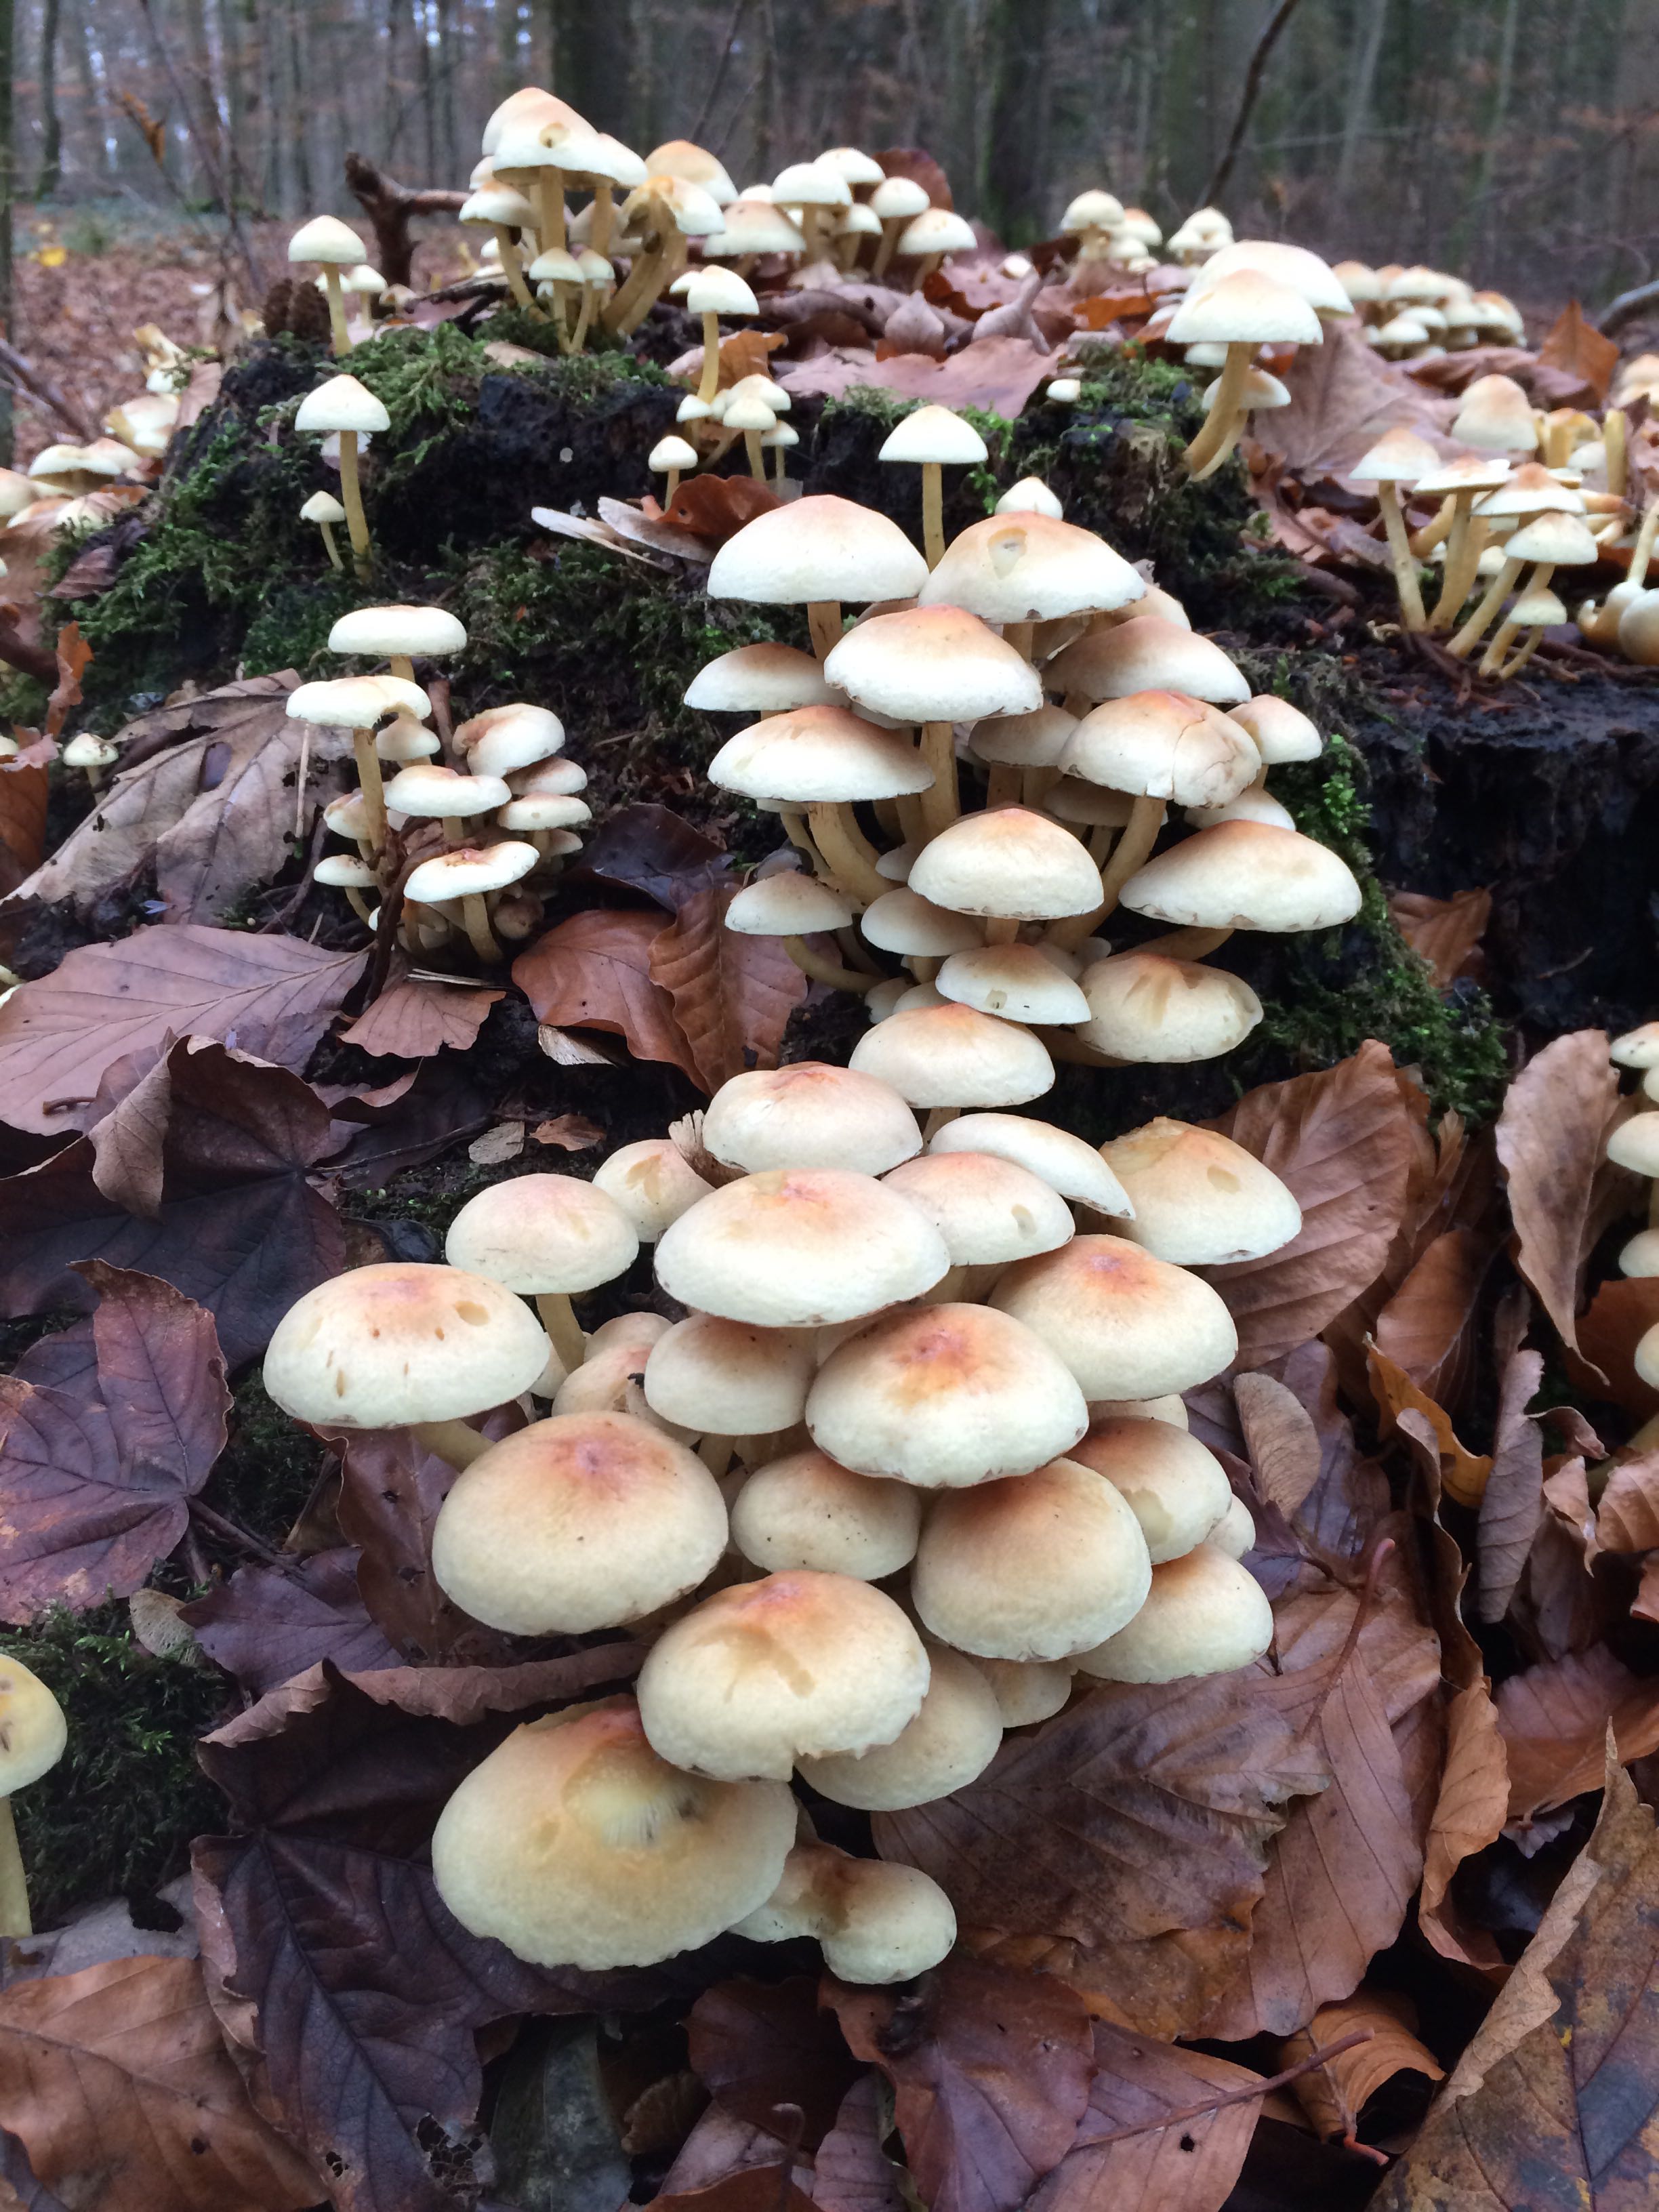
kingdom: Fungi
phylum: Basidiomycota
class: Agaricomycetes
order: Agaricales
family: Strophariaceae
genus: Hypholoma
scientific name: Hypholoma fasciculare
